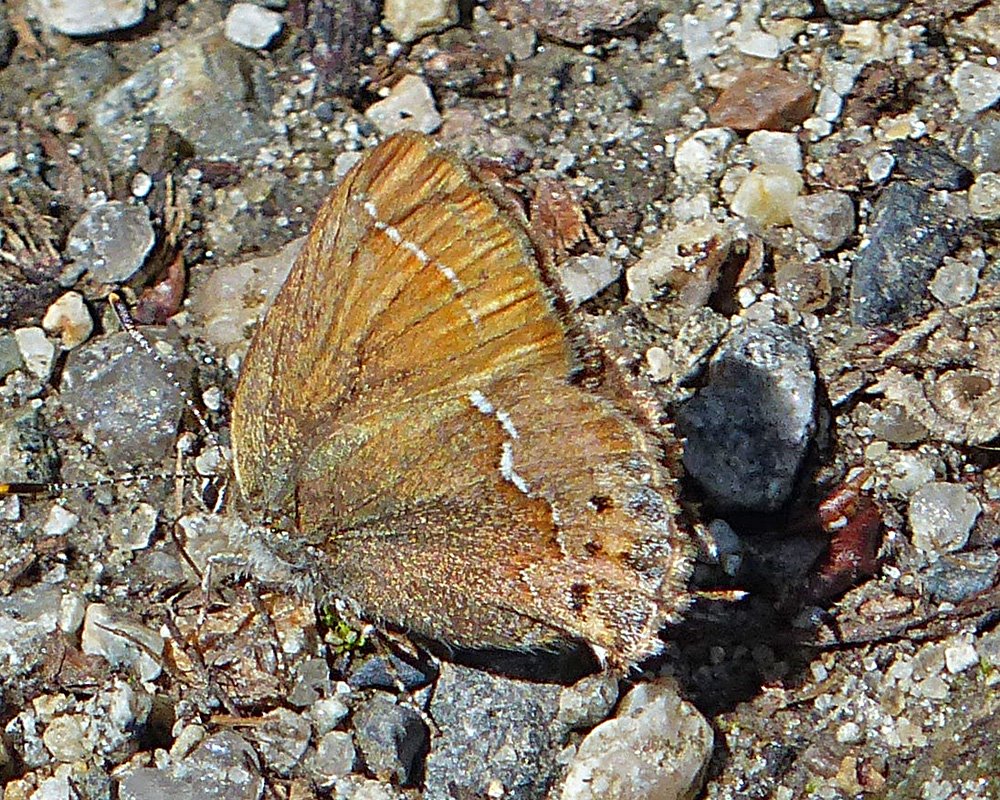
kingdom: Animalia
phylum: Arthropoda
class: Insecta
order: Lepidoptera
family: Lycaenidae
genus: Mitoura
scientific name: Mitoura nelsoni
